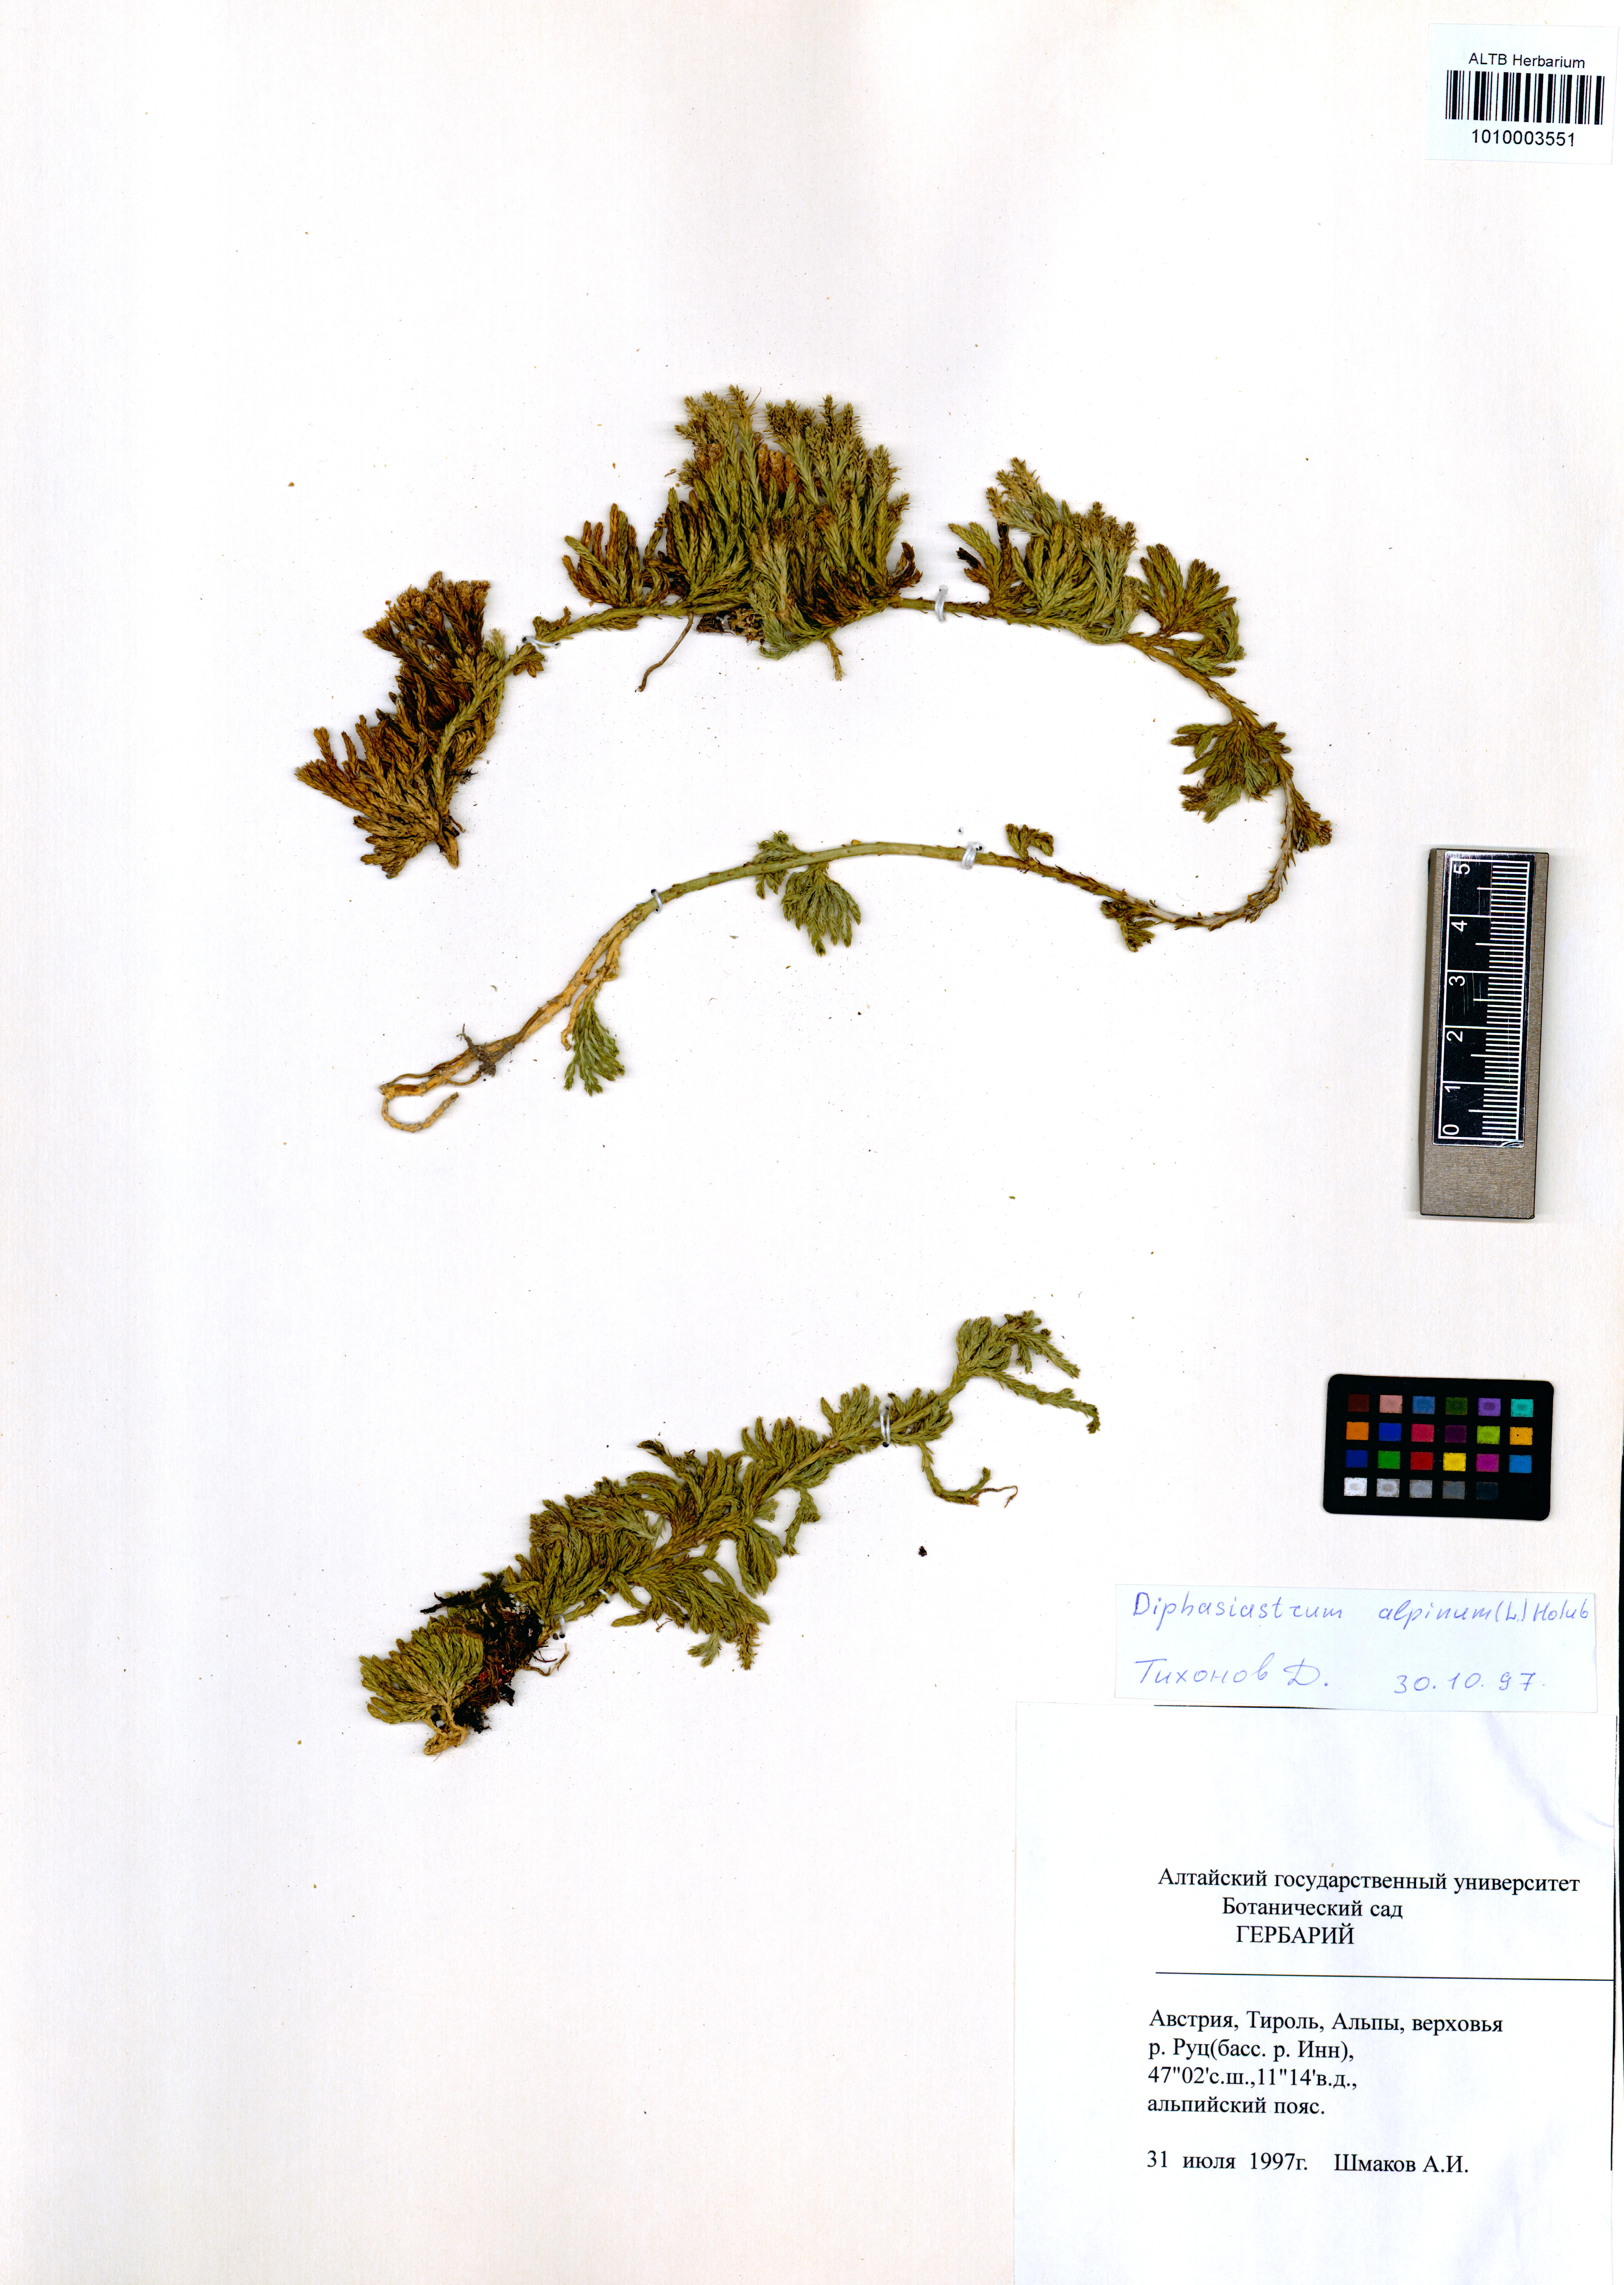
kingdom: Plantae
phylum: Tracheophyta
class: Lycopodiopsida
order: Lycopodiales
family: Lycopodiaceae
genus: Diphasiastrum
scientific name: Diphasiastrum alpinum
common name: Alpine clubmoss
